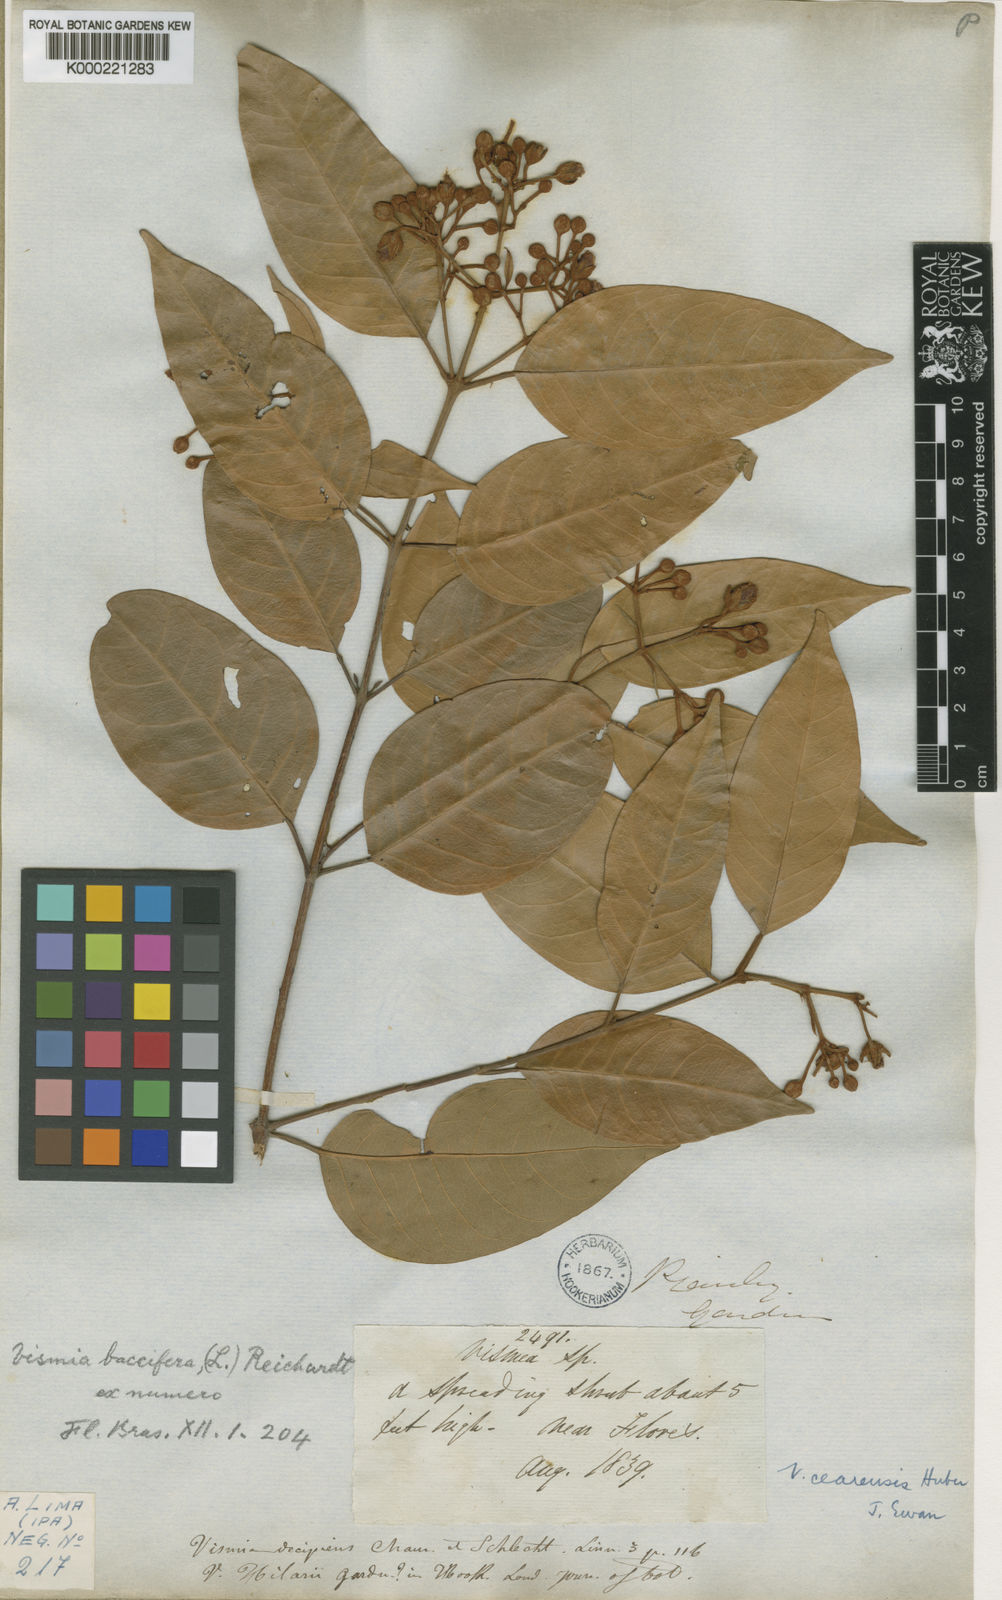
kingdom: Plantae
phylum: Tracheophyta
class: Magnoliopsida
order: Malpighiales
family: Hypericaceae
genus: Vismia
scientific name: Vismia guianensis
